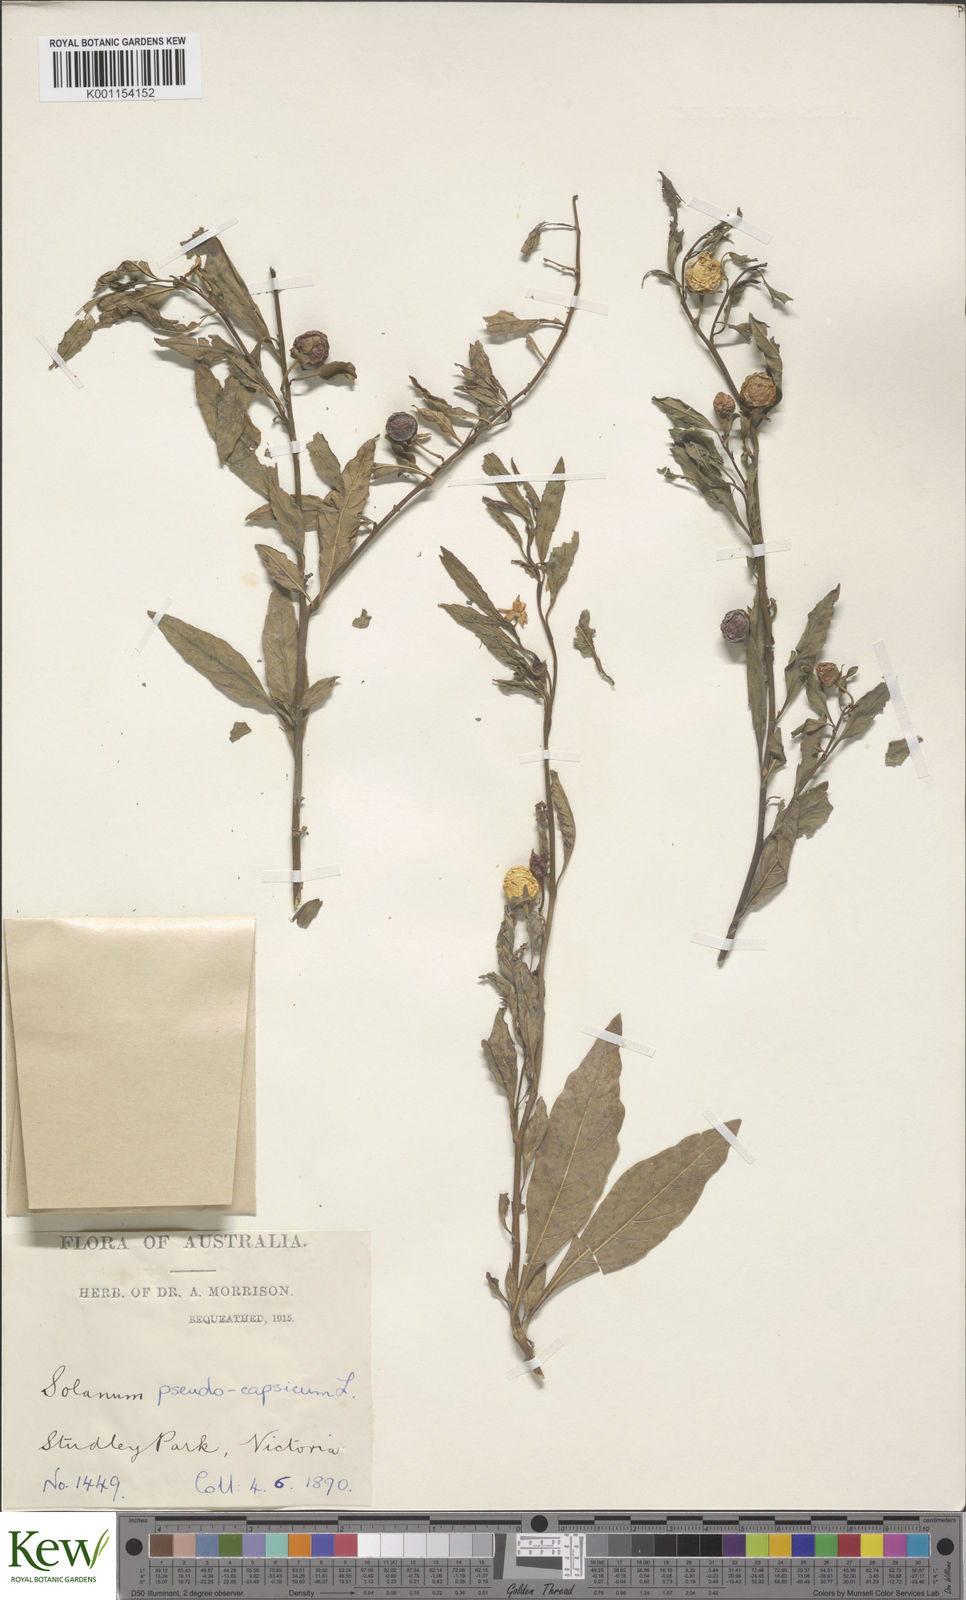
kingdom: Plantae
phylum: Tracheophyta
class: Magnoliopsida
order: Solanales
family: Solanaceae
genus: Solanum
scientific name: Solanum pseudocapsicum
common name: Jerusalem cherry
